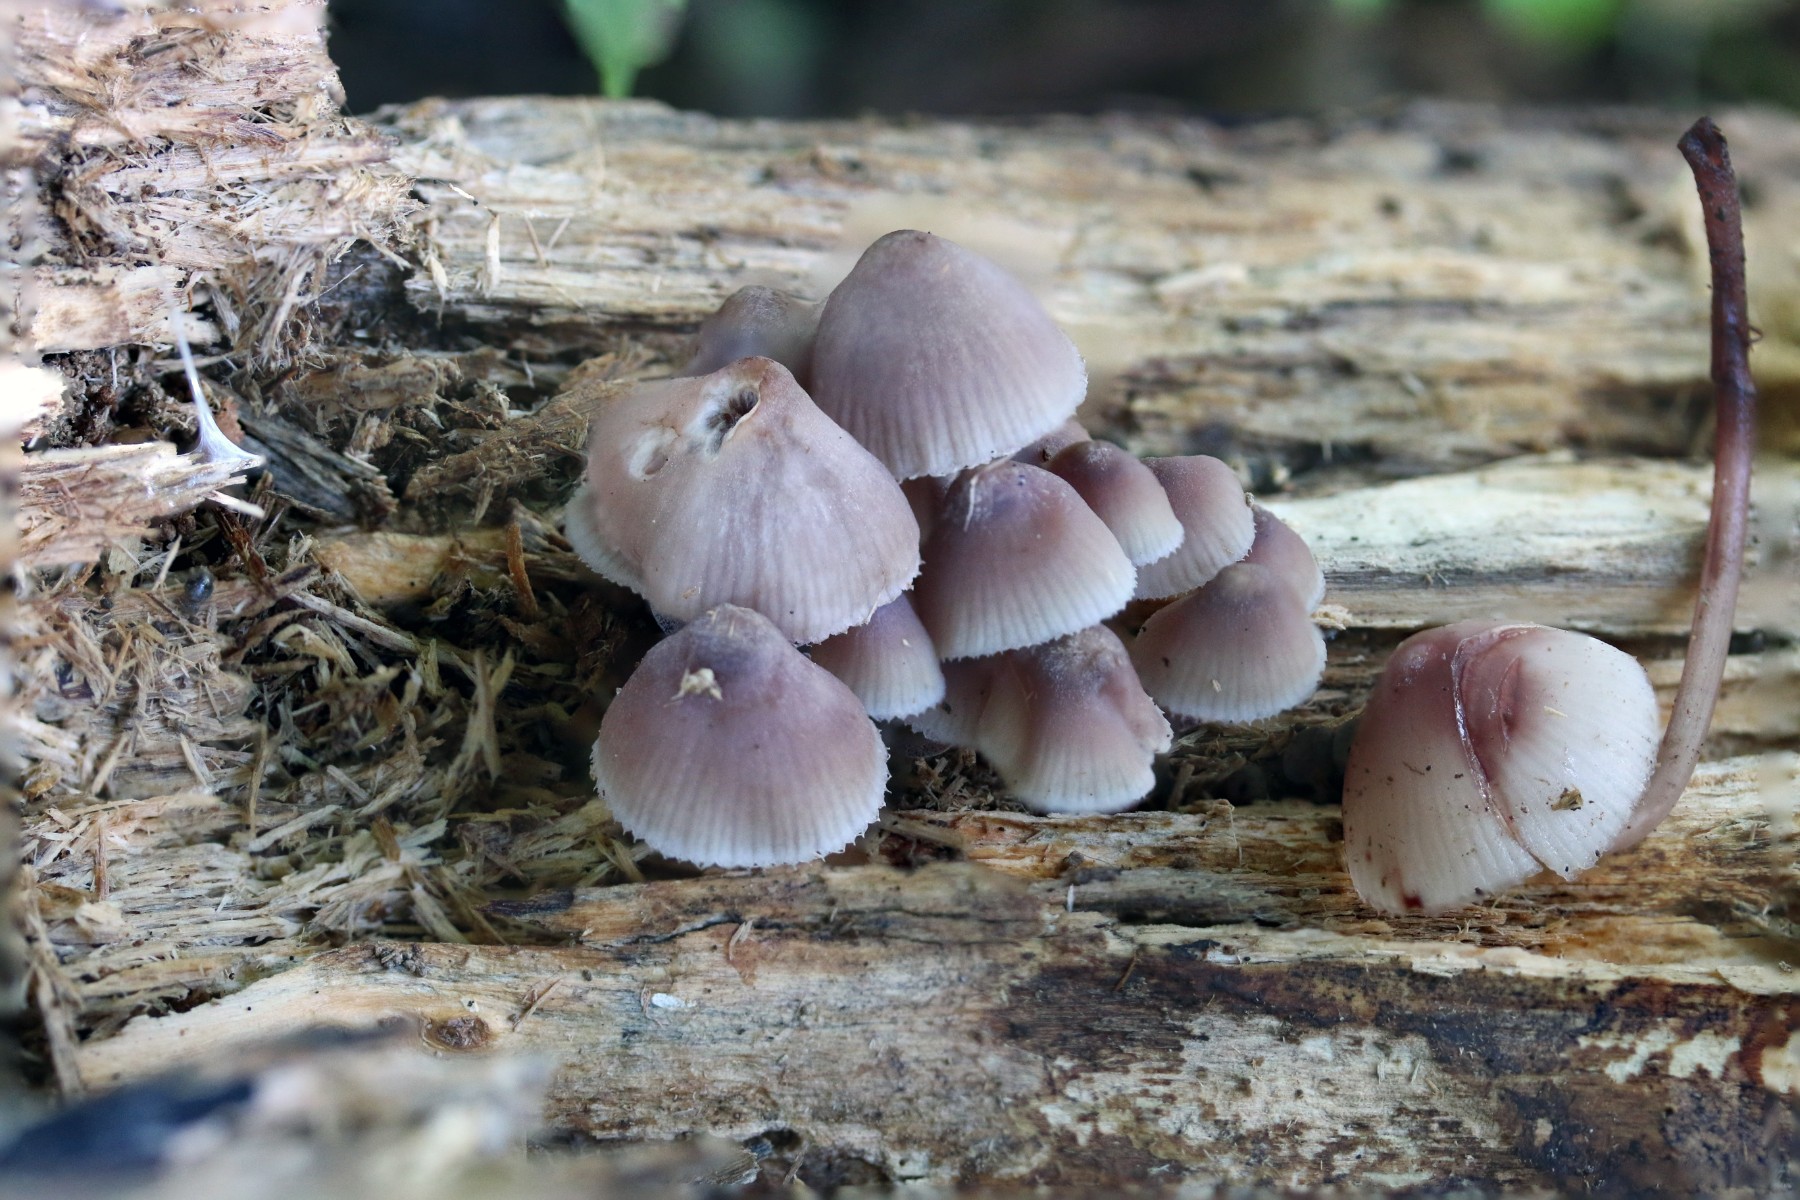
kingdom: Fungi
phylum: Basidiomycota
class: Agaricomycetes
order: Agaricales
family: Mycenaceae
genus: Mycena
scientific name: Mycena haematopus
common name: blødende huesvamp
